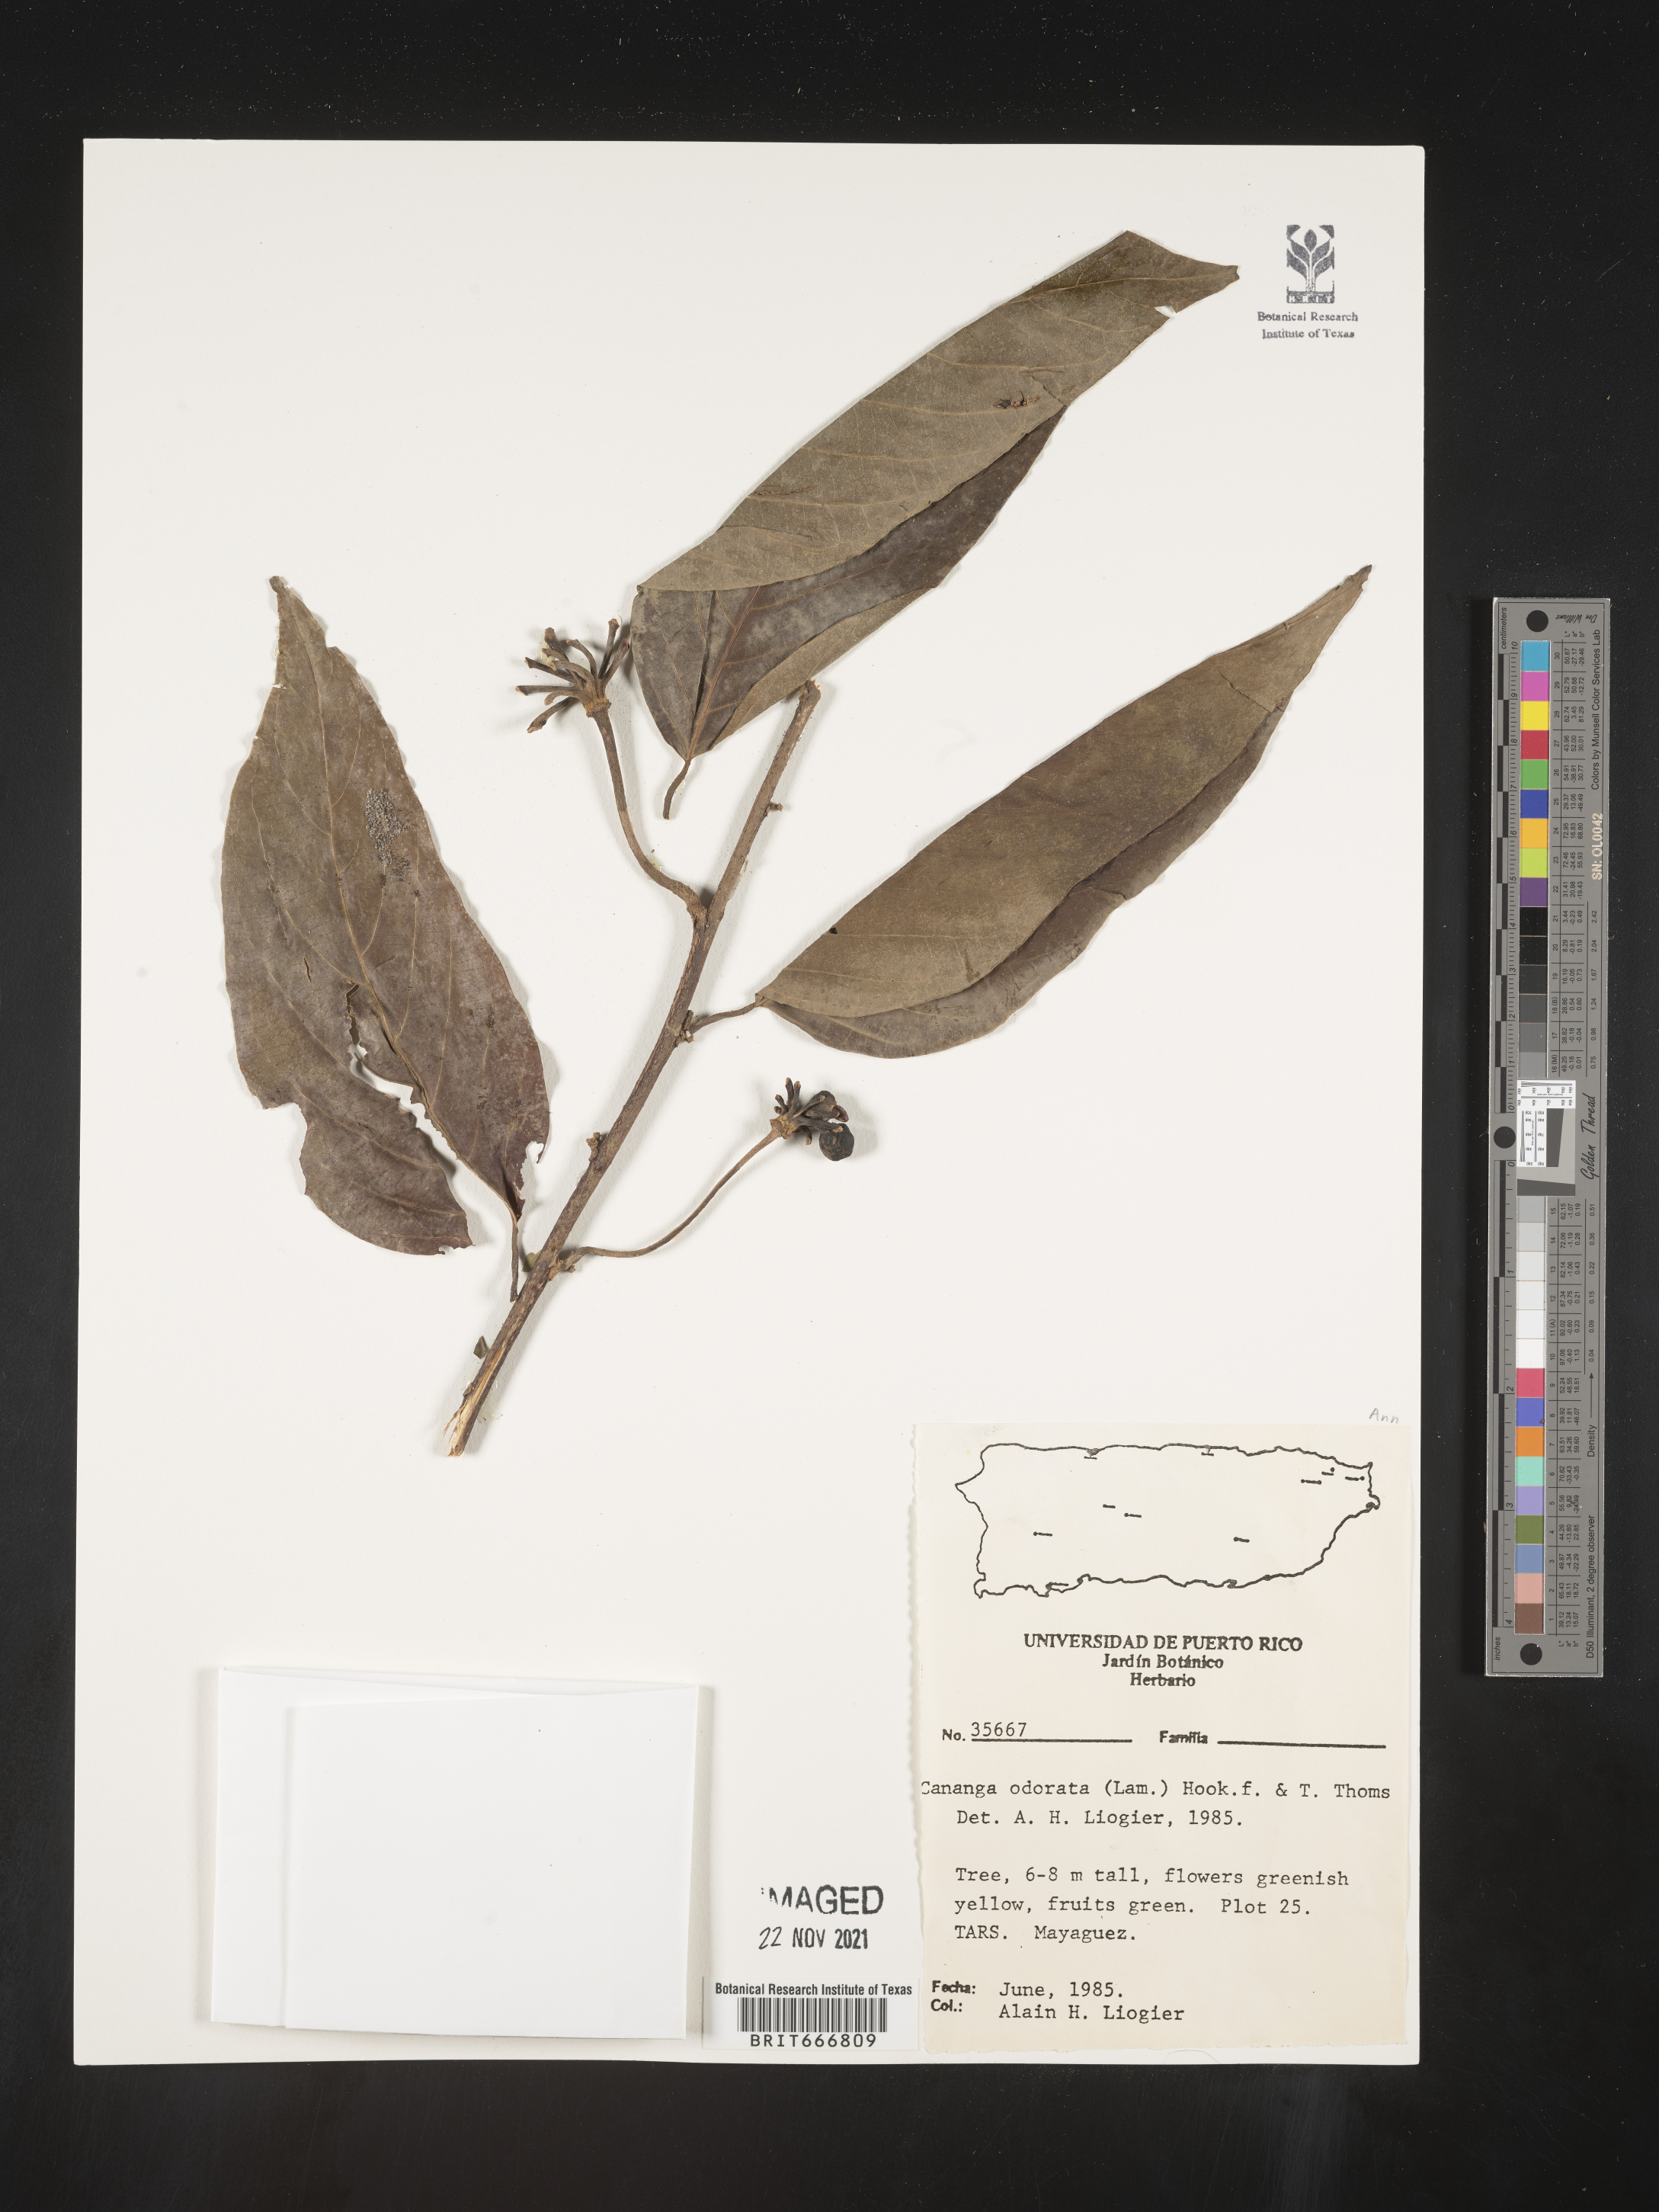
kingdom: Plantae
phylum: Tracheophyta
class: Magnoliopsida
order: Magnoliales
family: Annonaceae
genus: Cananga
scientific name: Cananga
